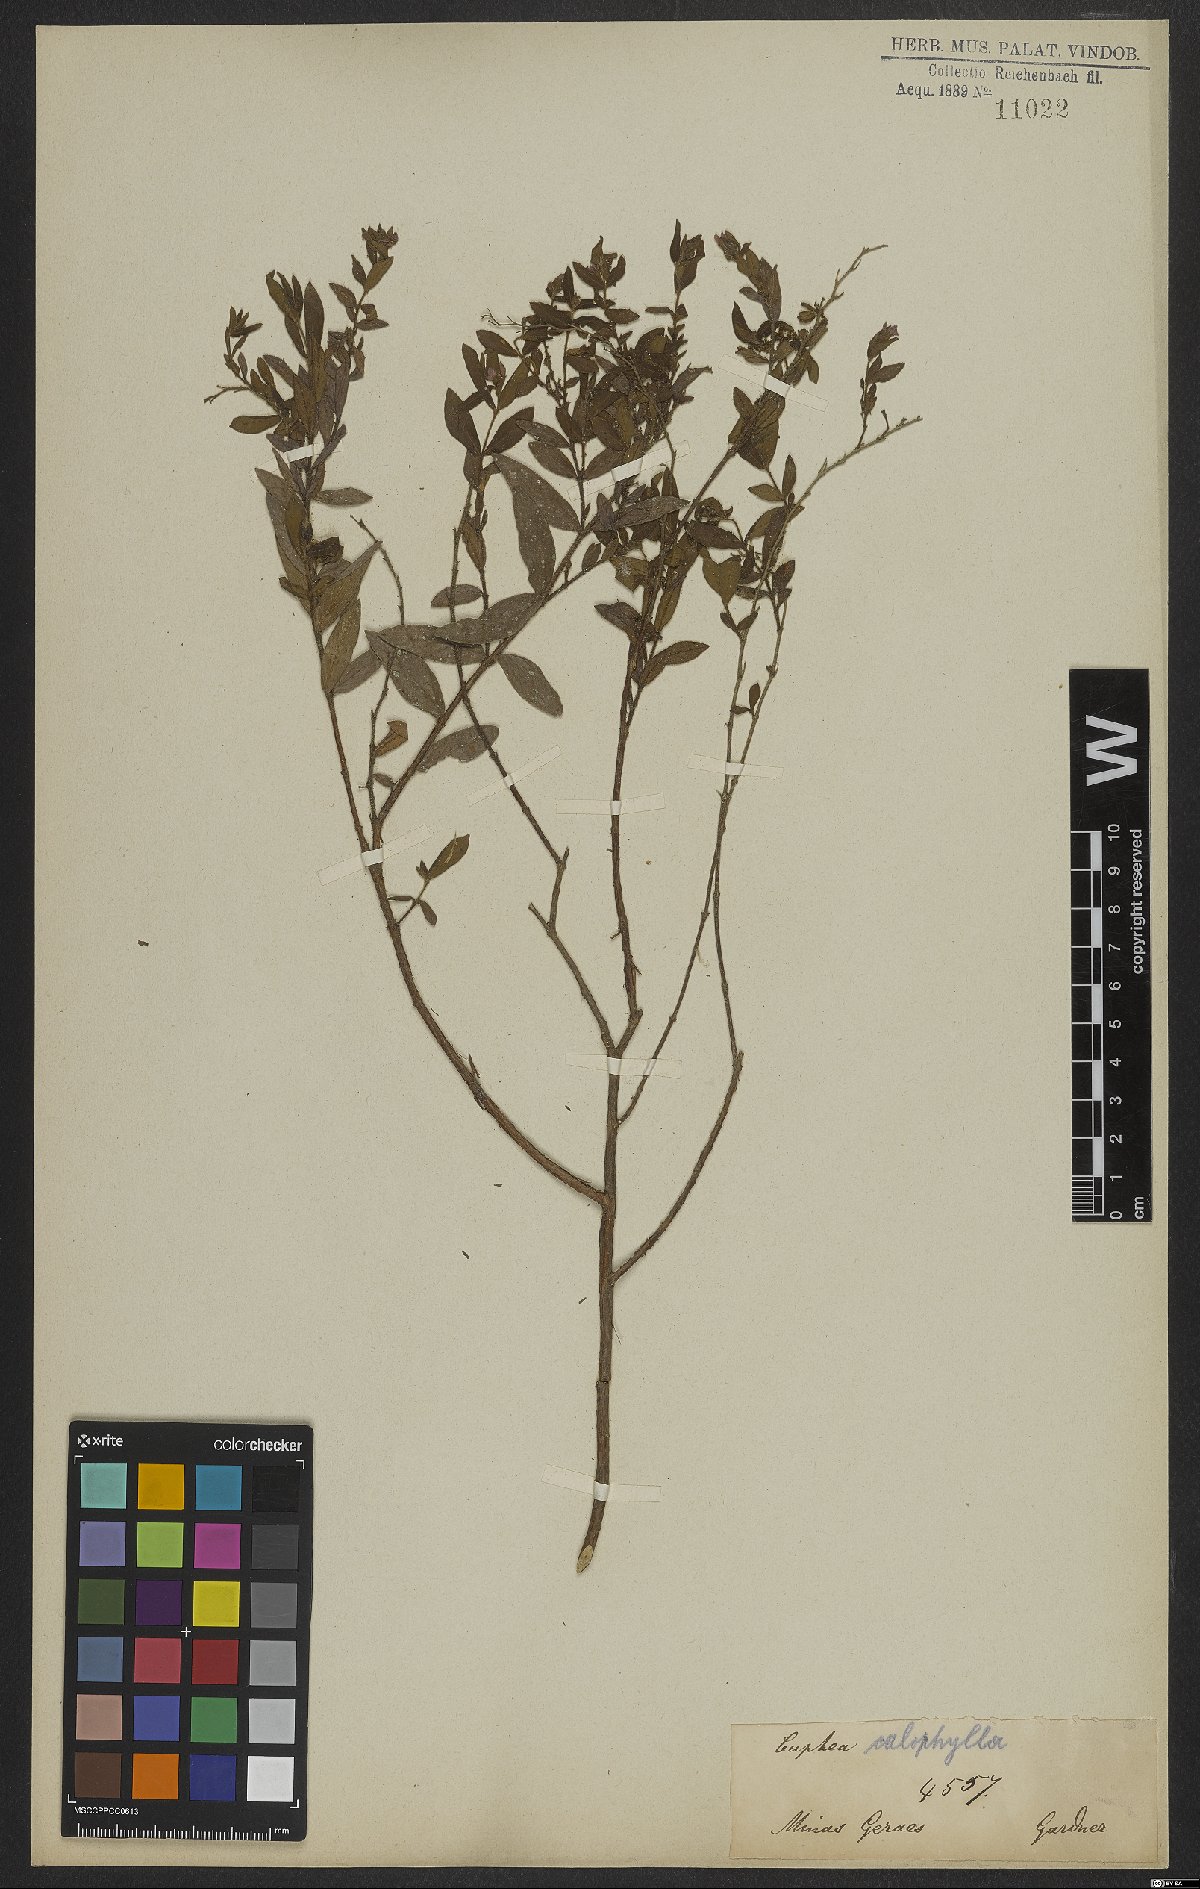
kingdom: Plantae
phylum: Tracheophyta
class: Magnoliopsida
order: Myrtales
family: Lythraceae
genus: Cuphea
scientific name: Cuphea calophylla
